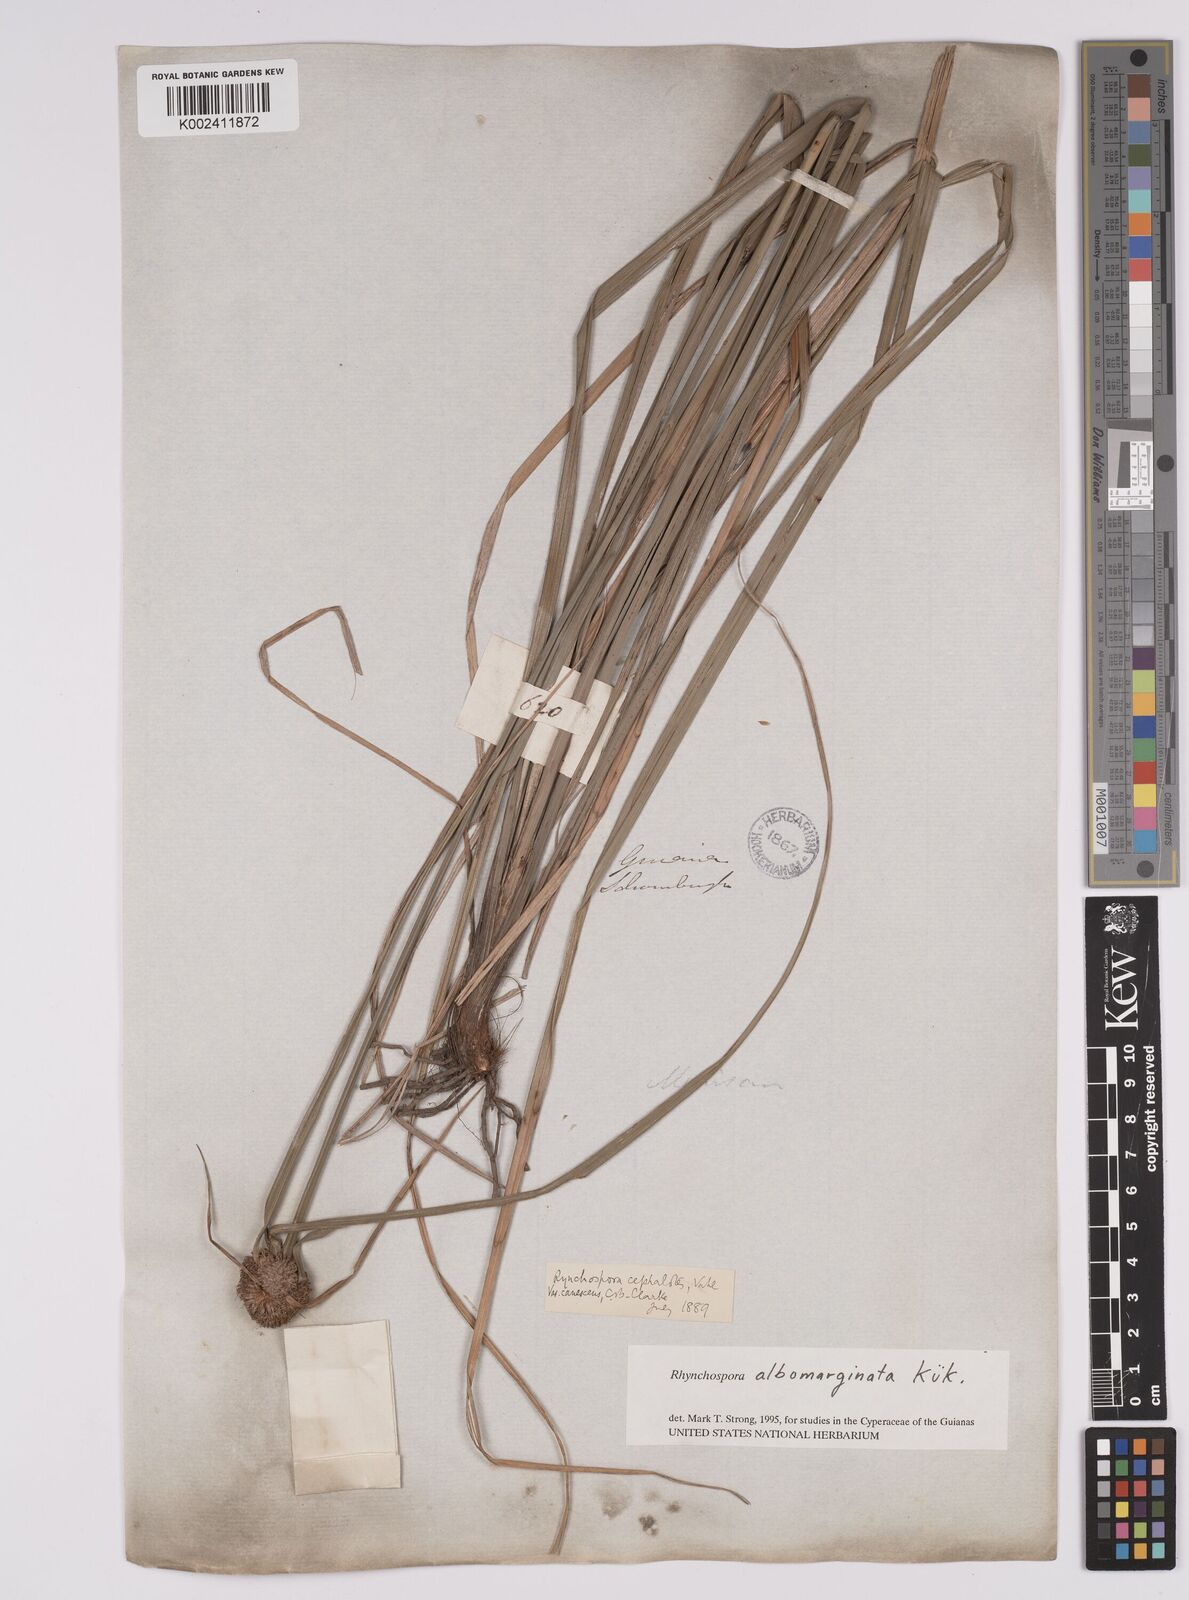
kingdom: Plantae
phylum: Tracheophyta
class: Liliopsida
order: Poales
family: Cyperaceae
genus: Rhynchospora
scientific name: Rhynchospora albomarginata
